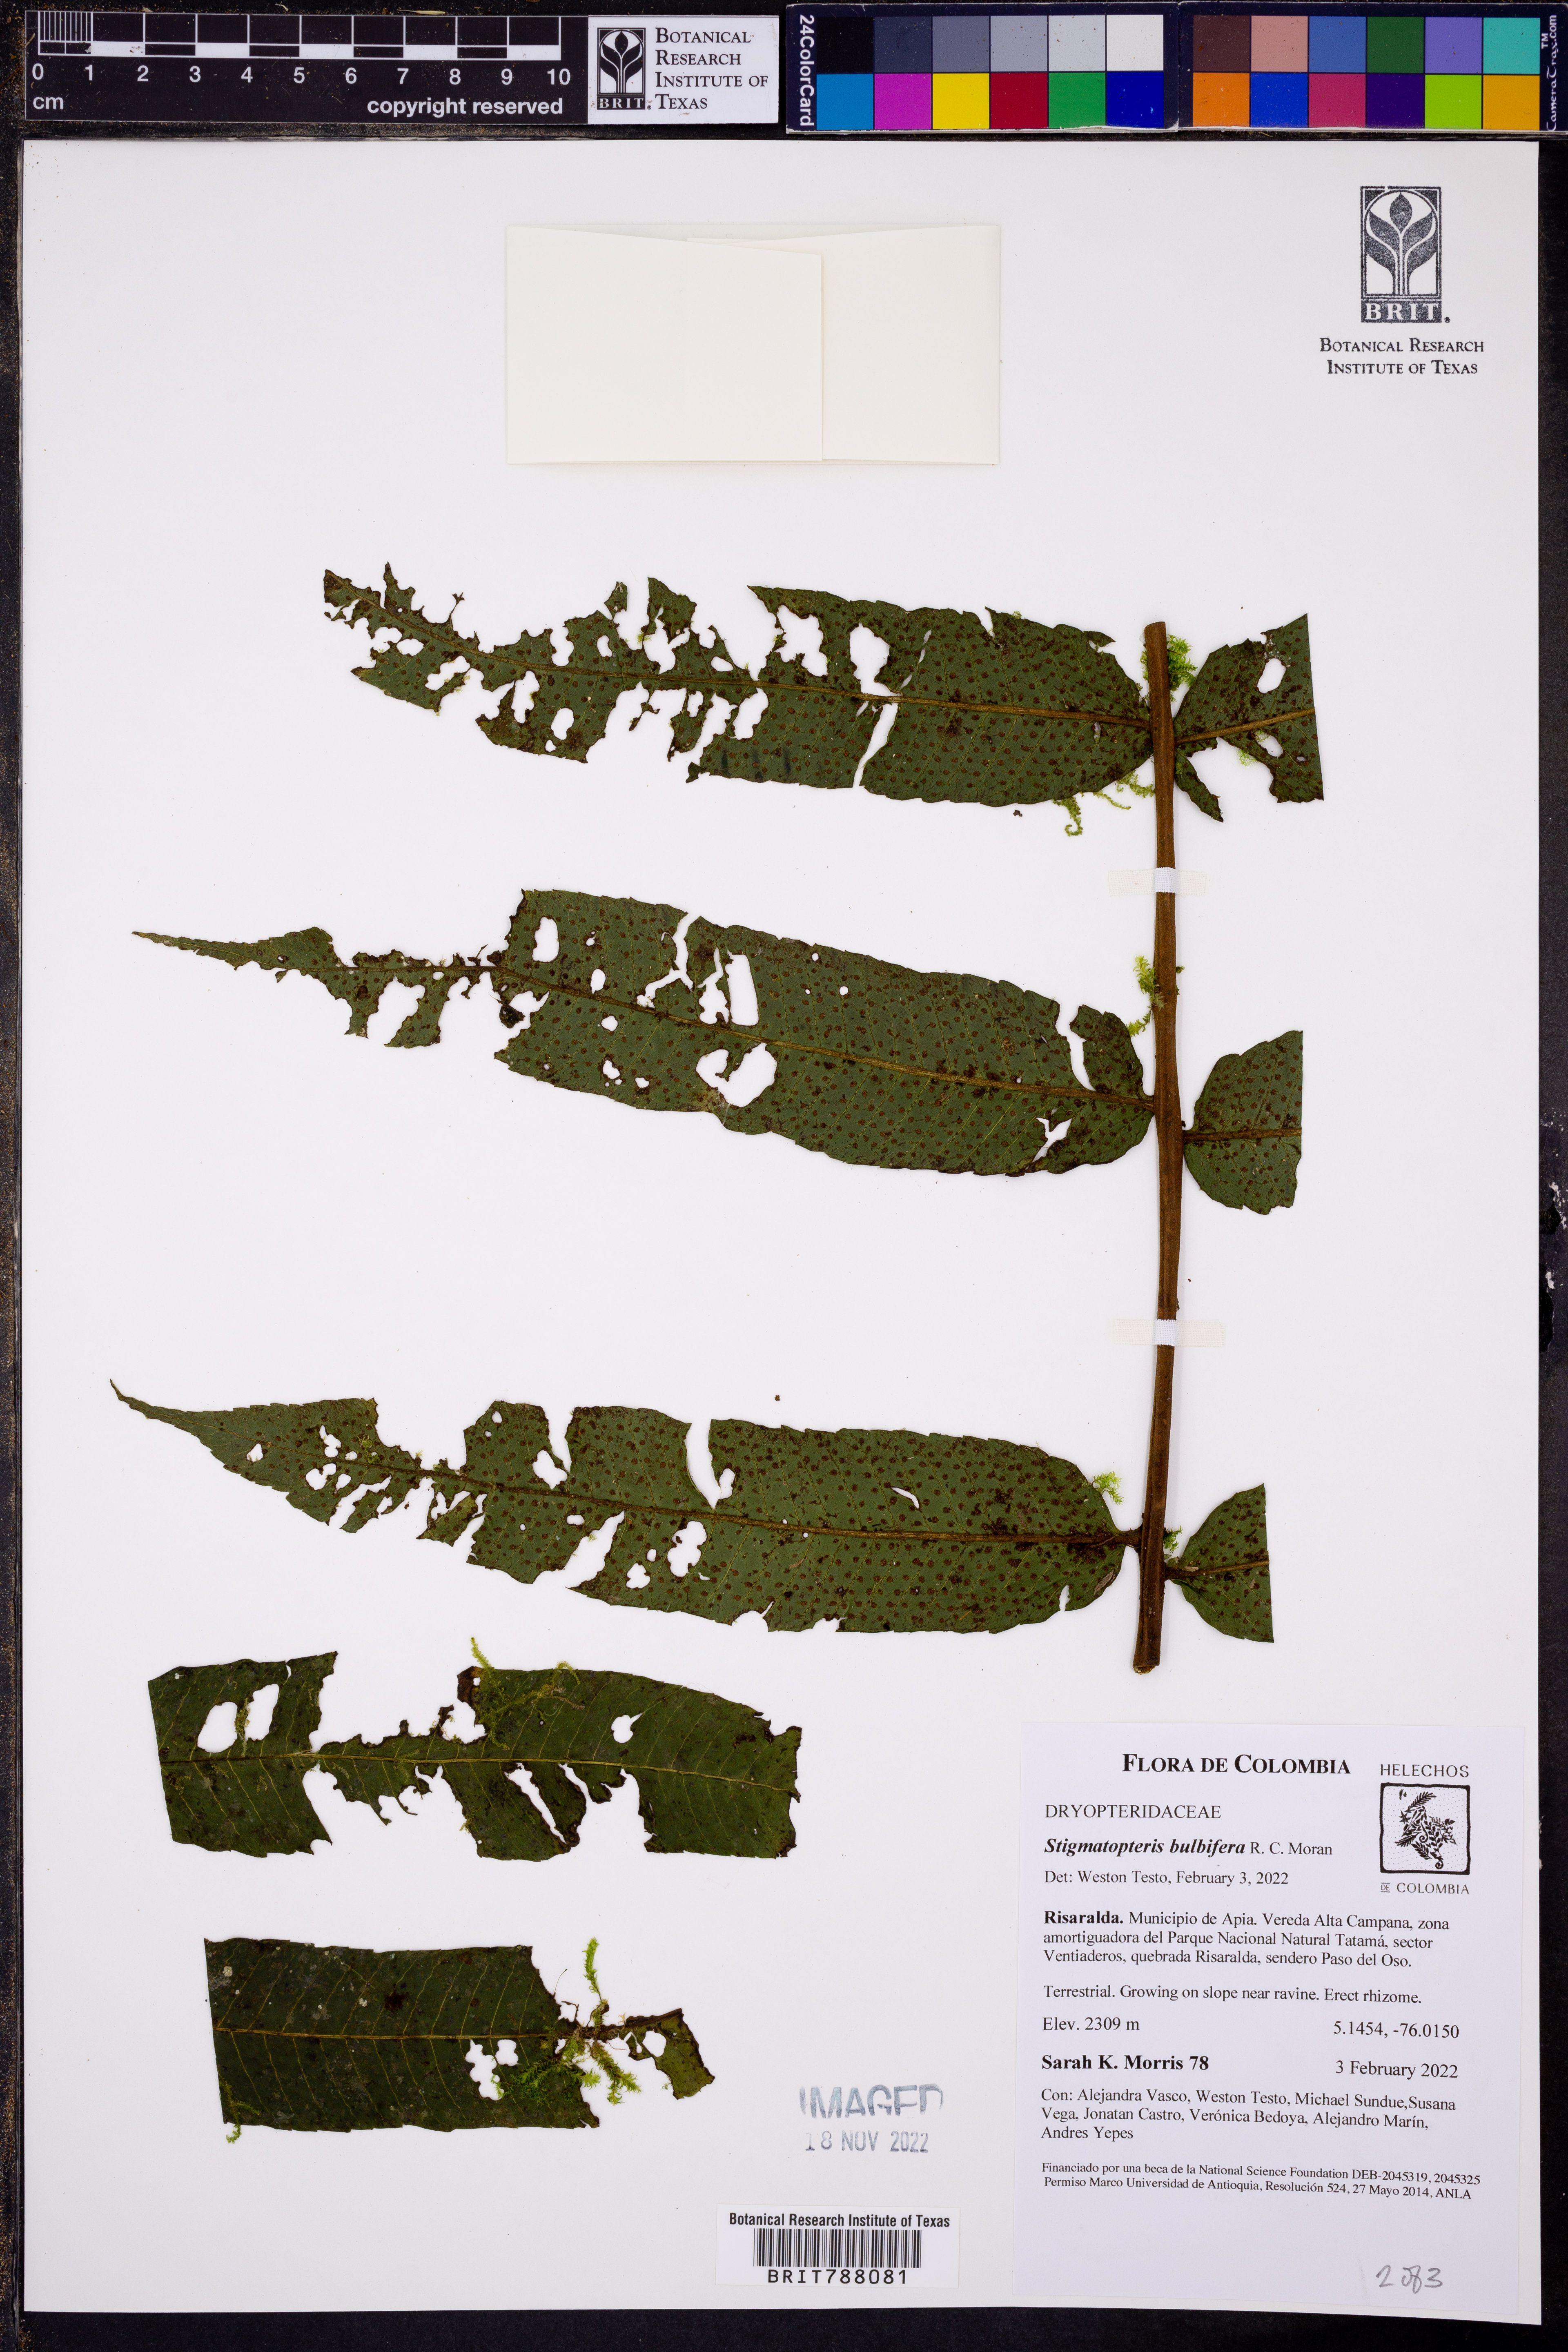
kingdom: Plantae
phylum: Tracheophyta
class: Polypodiopsida
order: Polypodiales
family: Dryopteridaceae
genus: Stigmatopteris
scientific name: Stigmatopteris bulbifera
